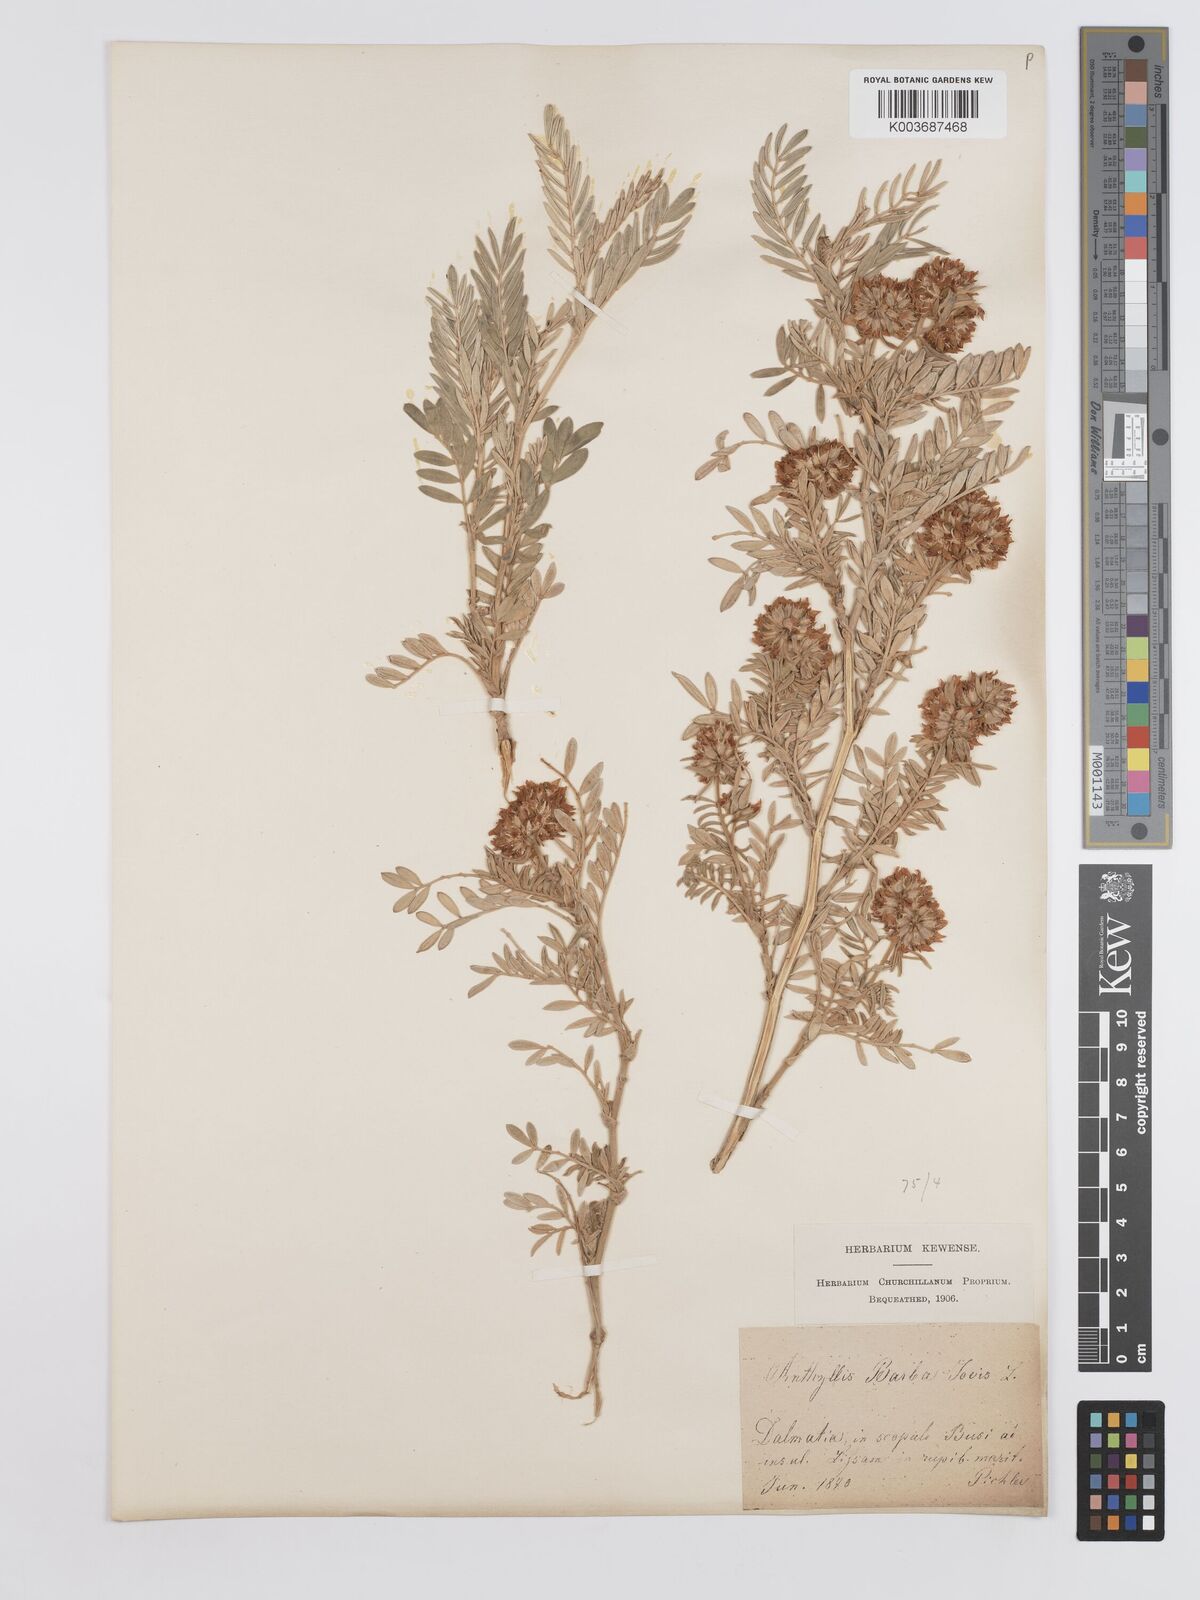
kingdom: Plantae
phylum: Tracheophyta
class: Magnoliopsida
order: Fabales
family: Fabaceae
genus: Anthyllis
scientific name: Anthyllis barba-jovis
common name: Jupiter's-beard
